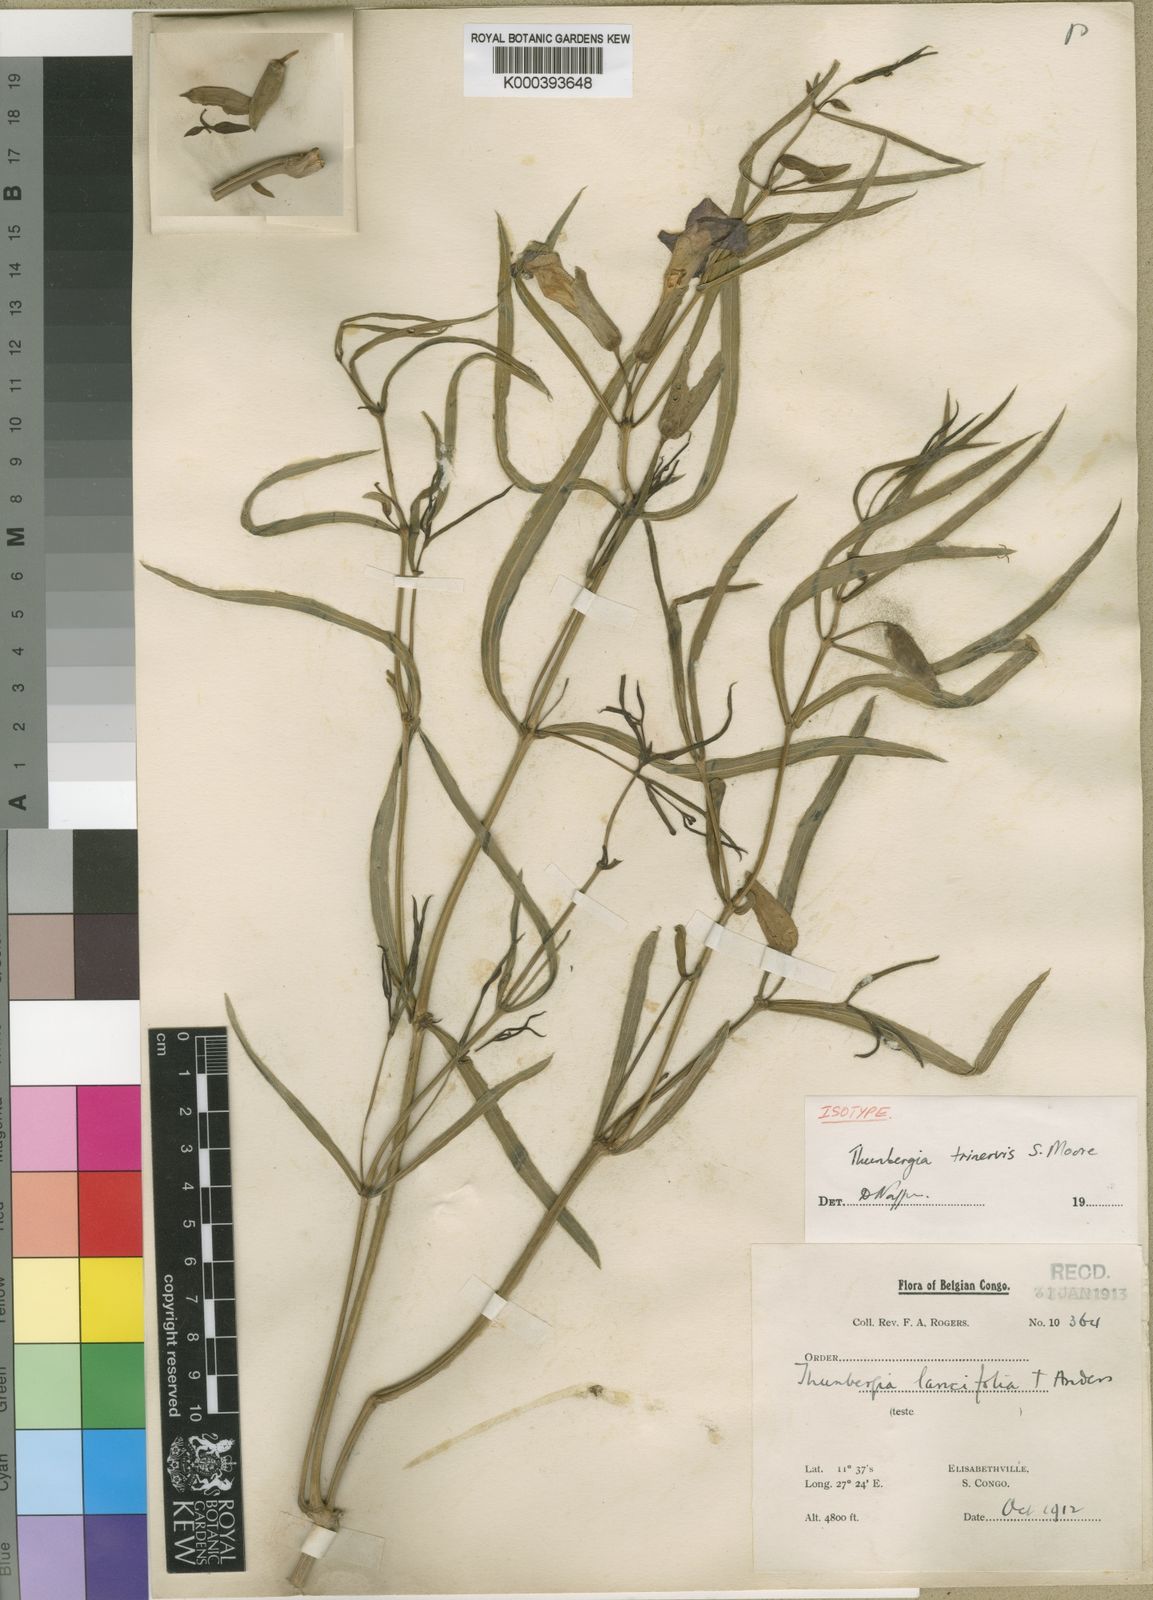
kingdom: Plantae
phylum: Tracheophyta
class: Magnoliopsida
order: Lamiales
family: Acanthaceae
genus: Thunbergia
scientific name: Thunbergia graminifolia
